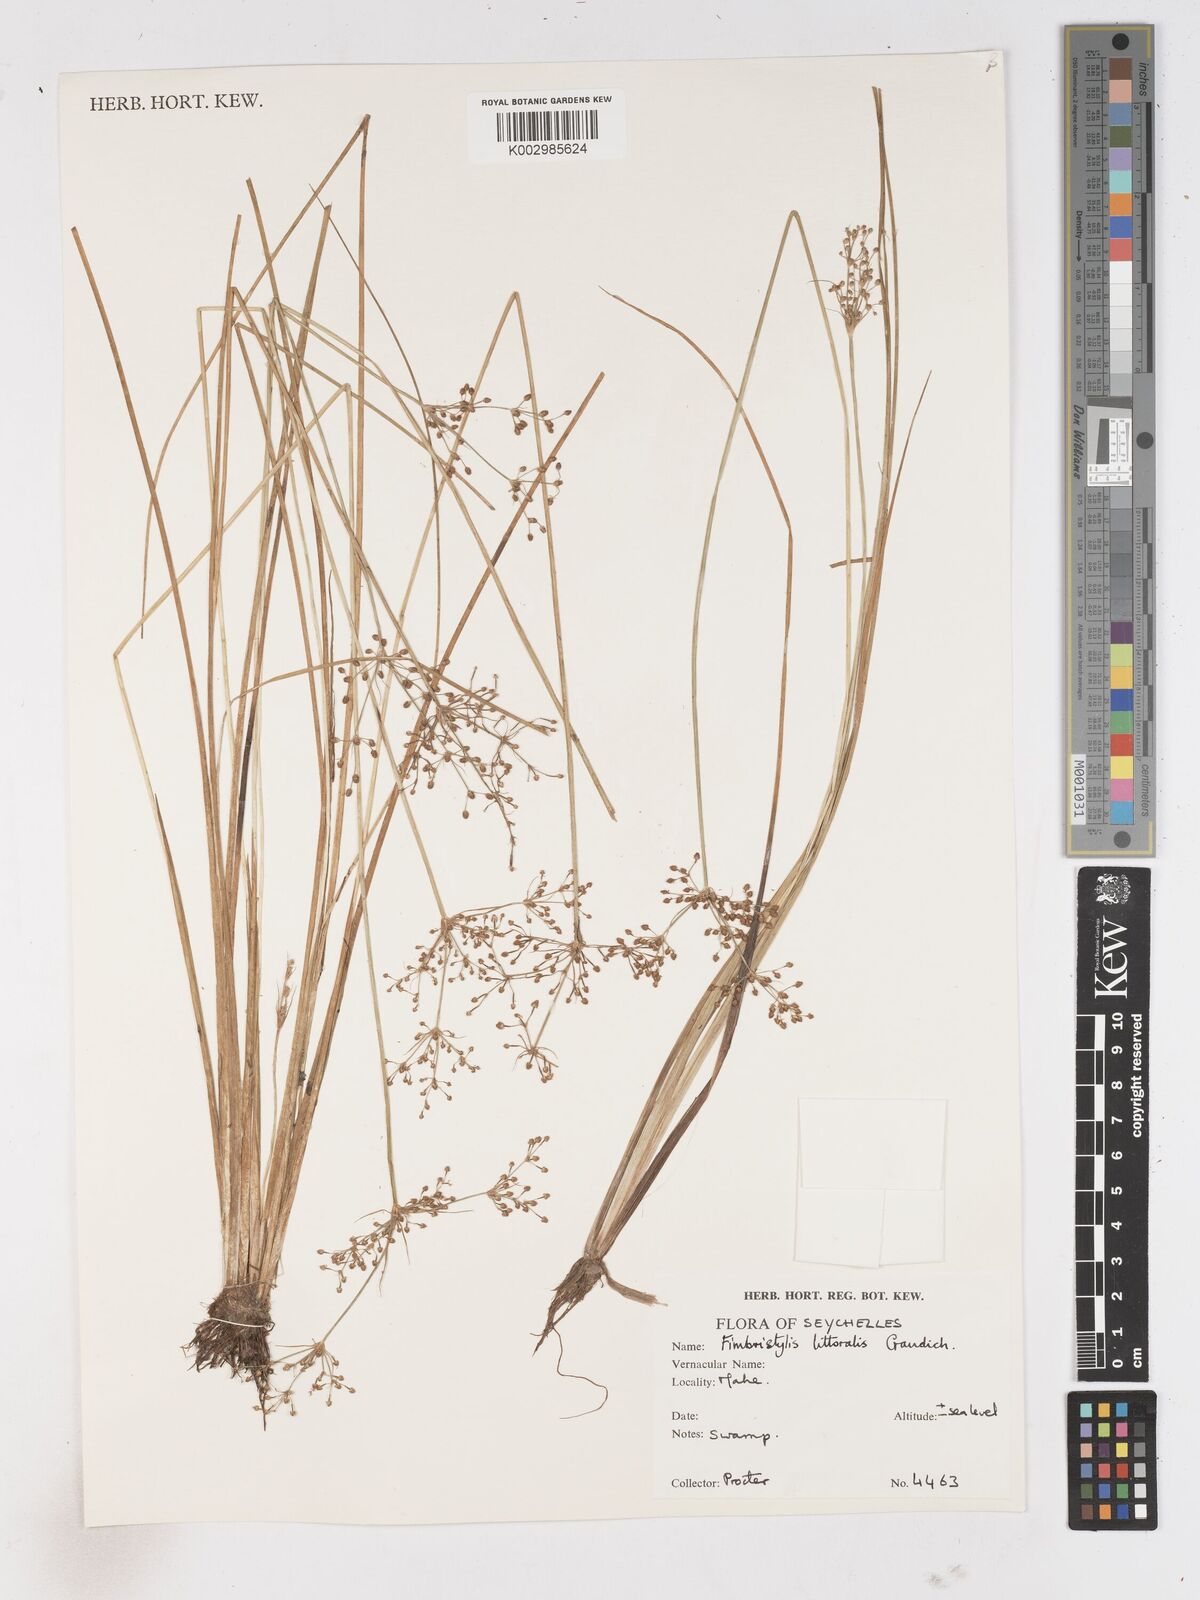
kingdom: Plantae
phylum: Tracheophyta
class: Liliopsida
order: Poales
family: Cyperaceae
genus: Fimbristylis
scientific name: Fimbristylis littoralis
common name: Fimbry
